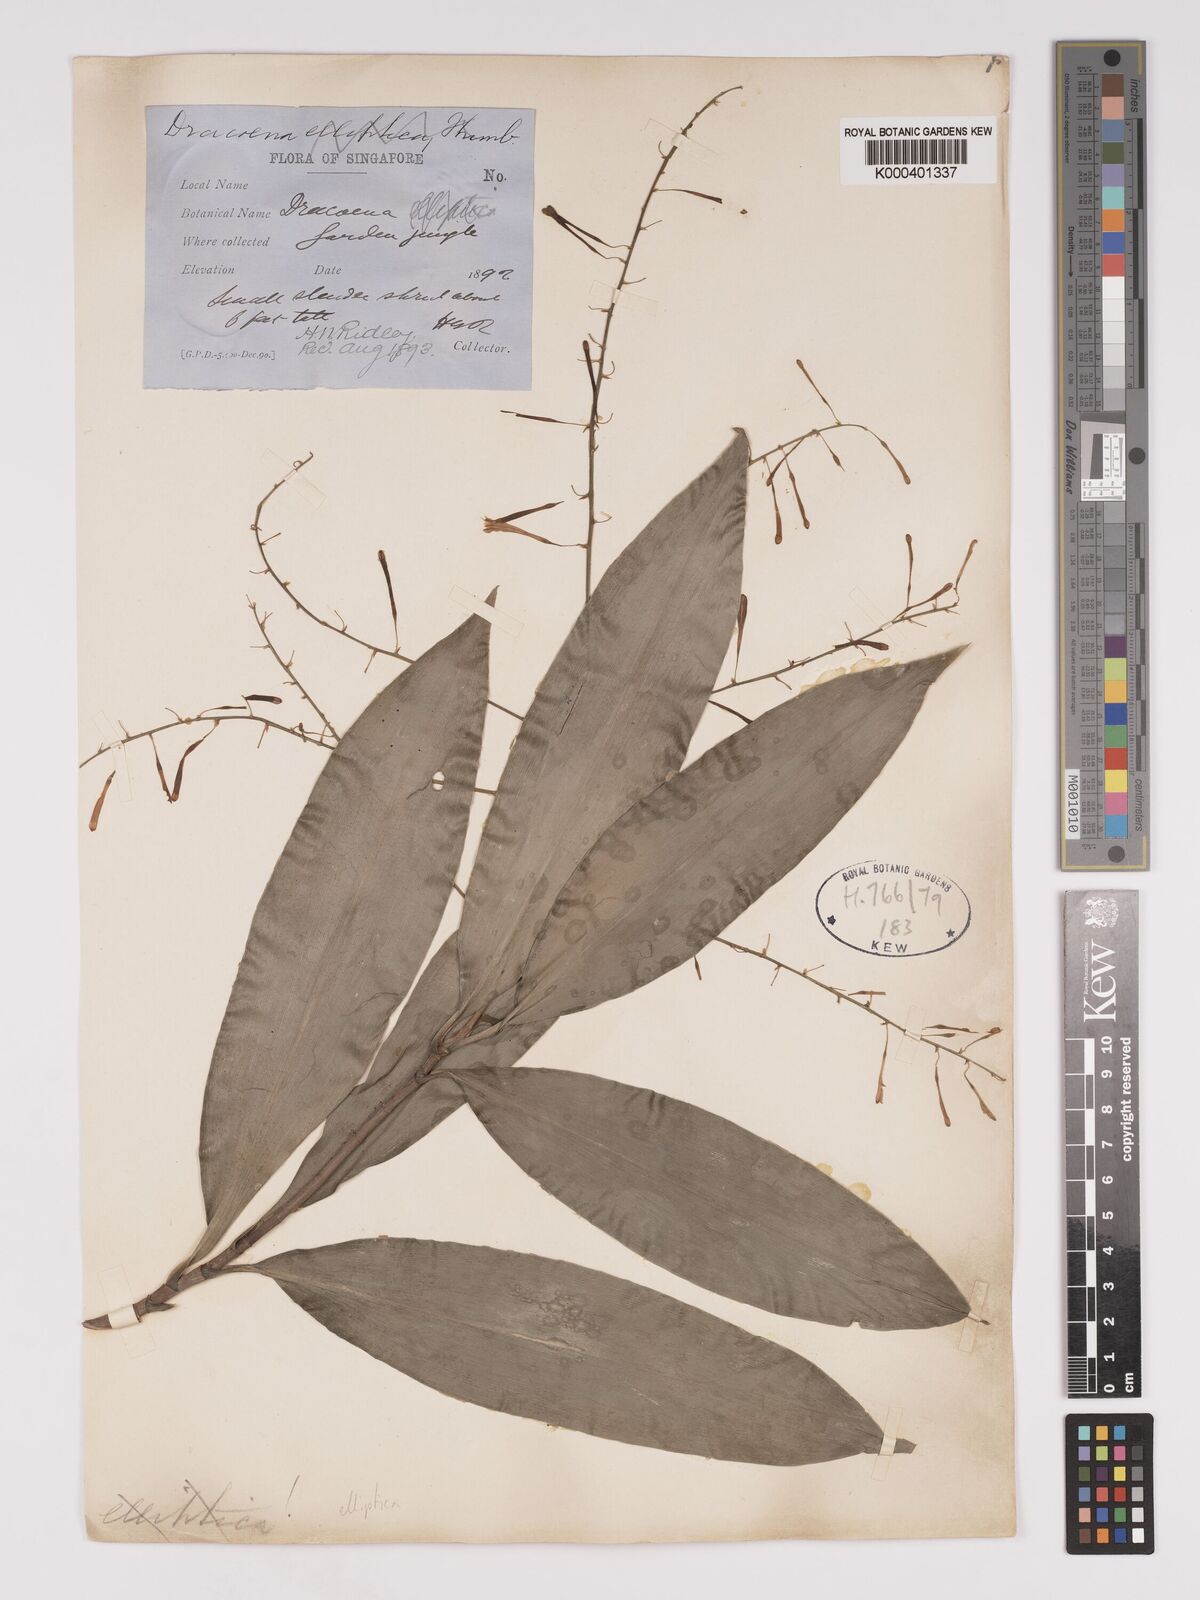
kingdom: Plantae
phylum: Tracheophyta
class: Liliopsida
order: Asparagales
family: Asparagaceae
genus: Dracaena
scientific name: Dracaena elliptica
